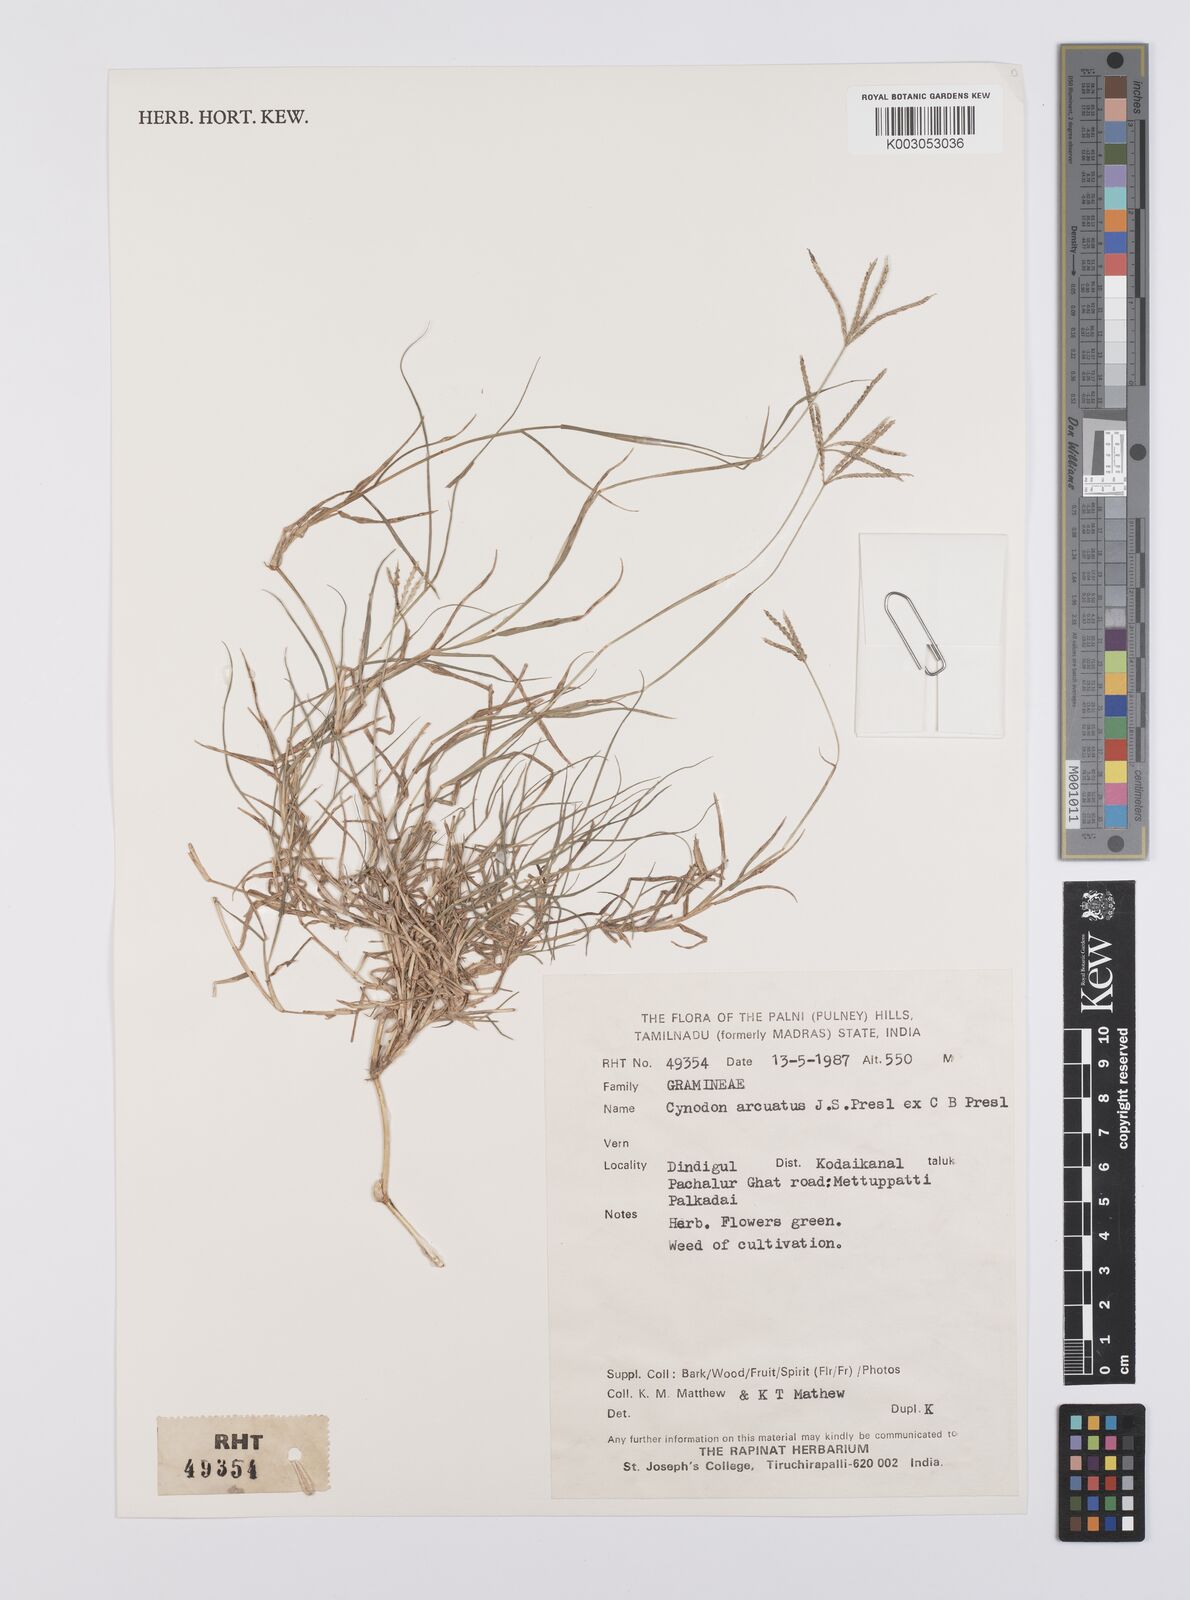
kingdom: Plantae
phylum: Tracheophyta
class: Liliopsida
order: Poales
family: Poaceae
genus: Cynodon
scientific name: Cynodon radiatus
